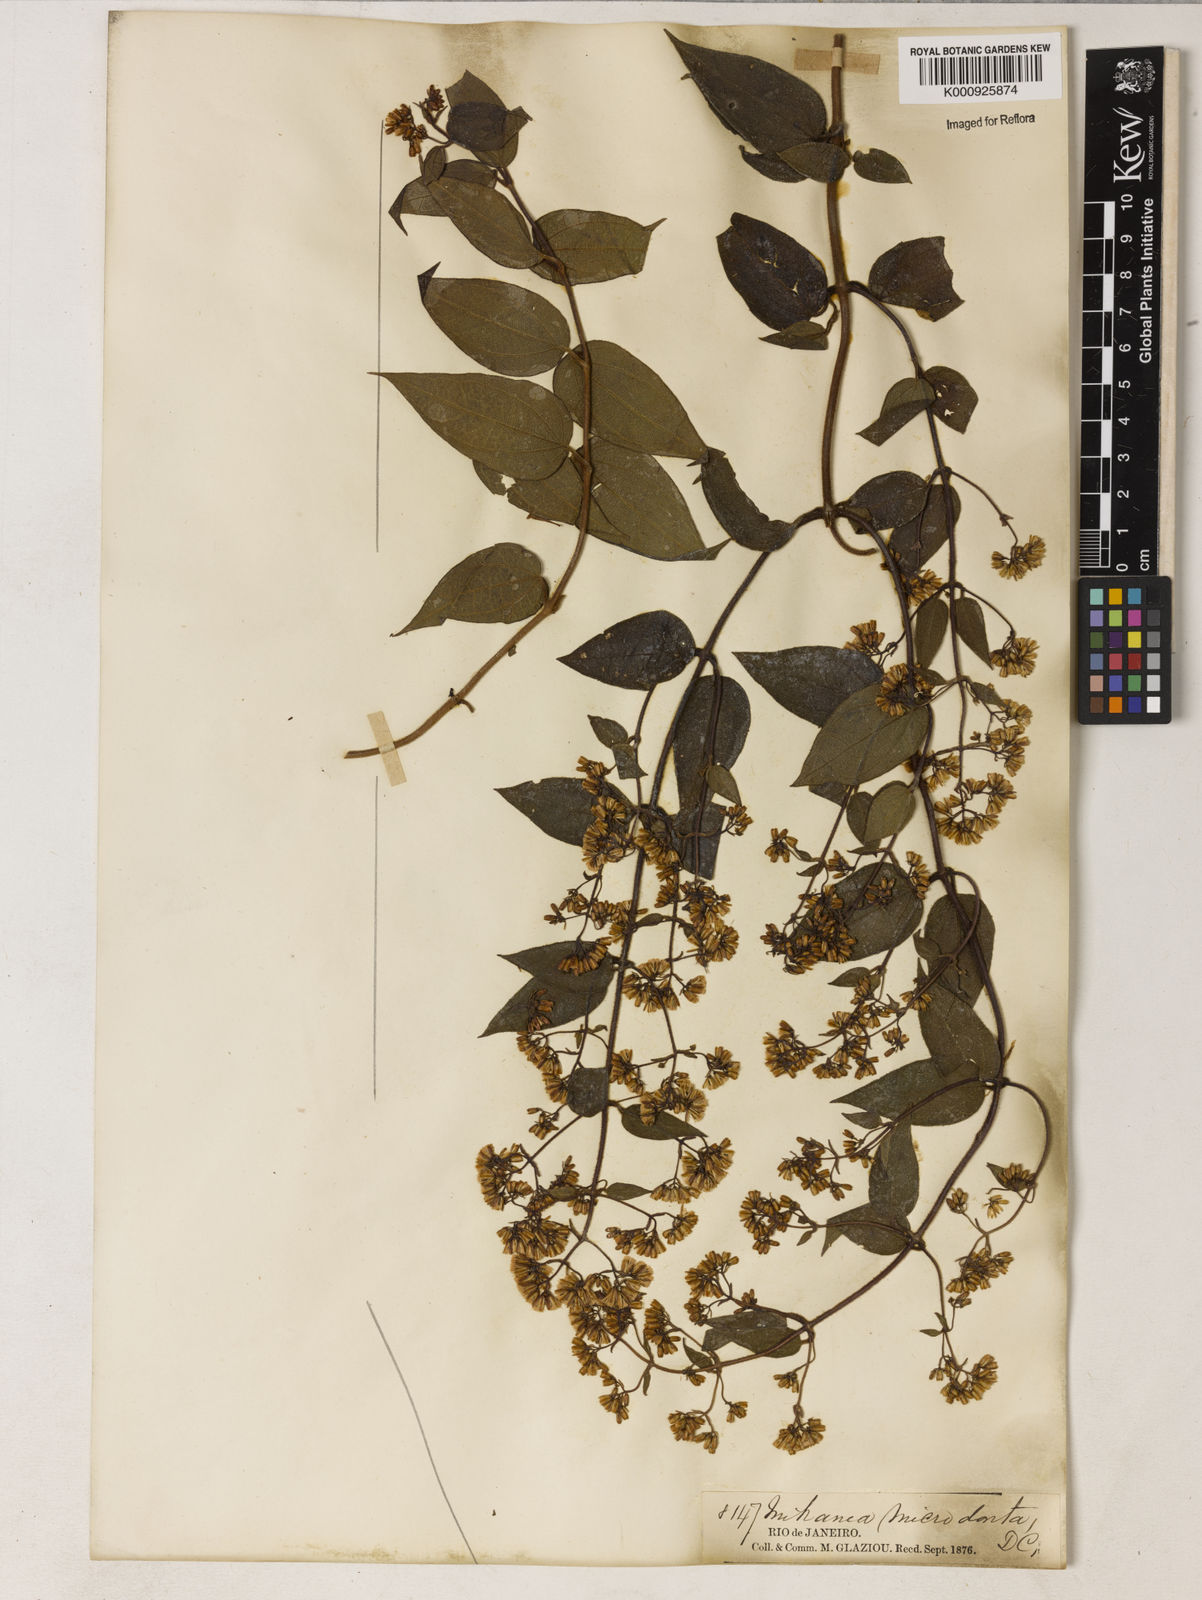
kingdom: Plantae
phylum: Tracheophyta
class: Magnoliopsida
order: Asterales
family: Asteraceae
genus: Mikania
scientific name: Mikania microdonta
